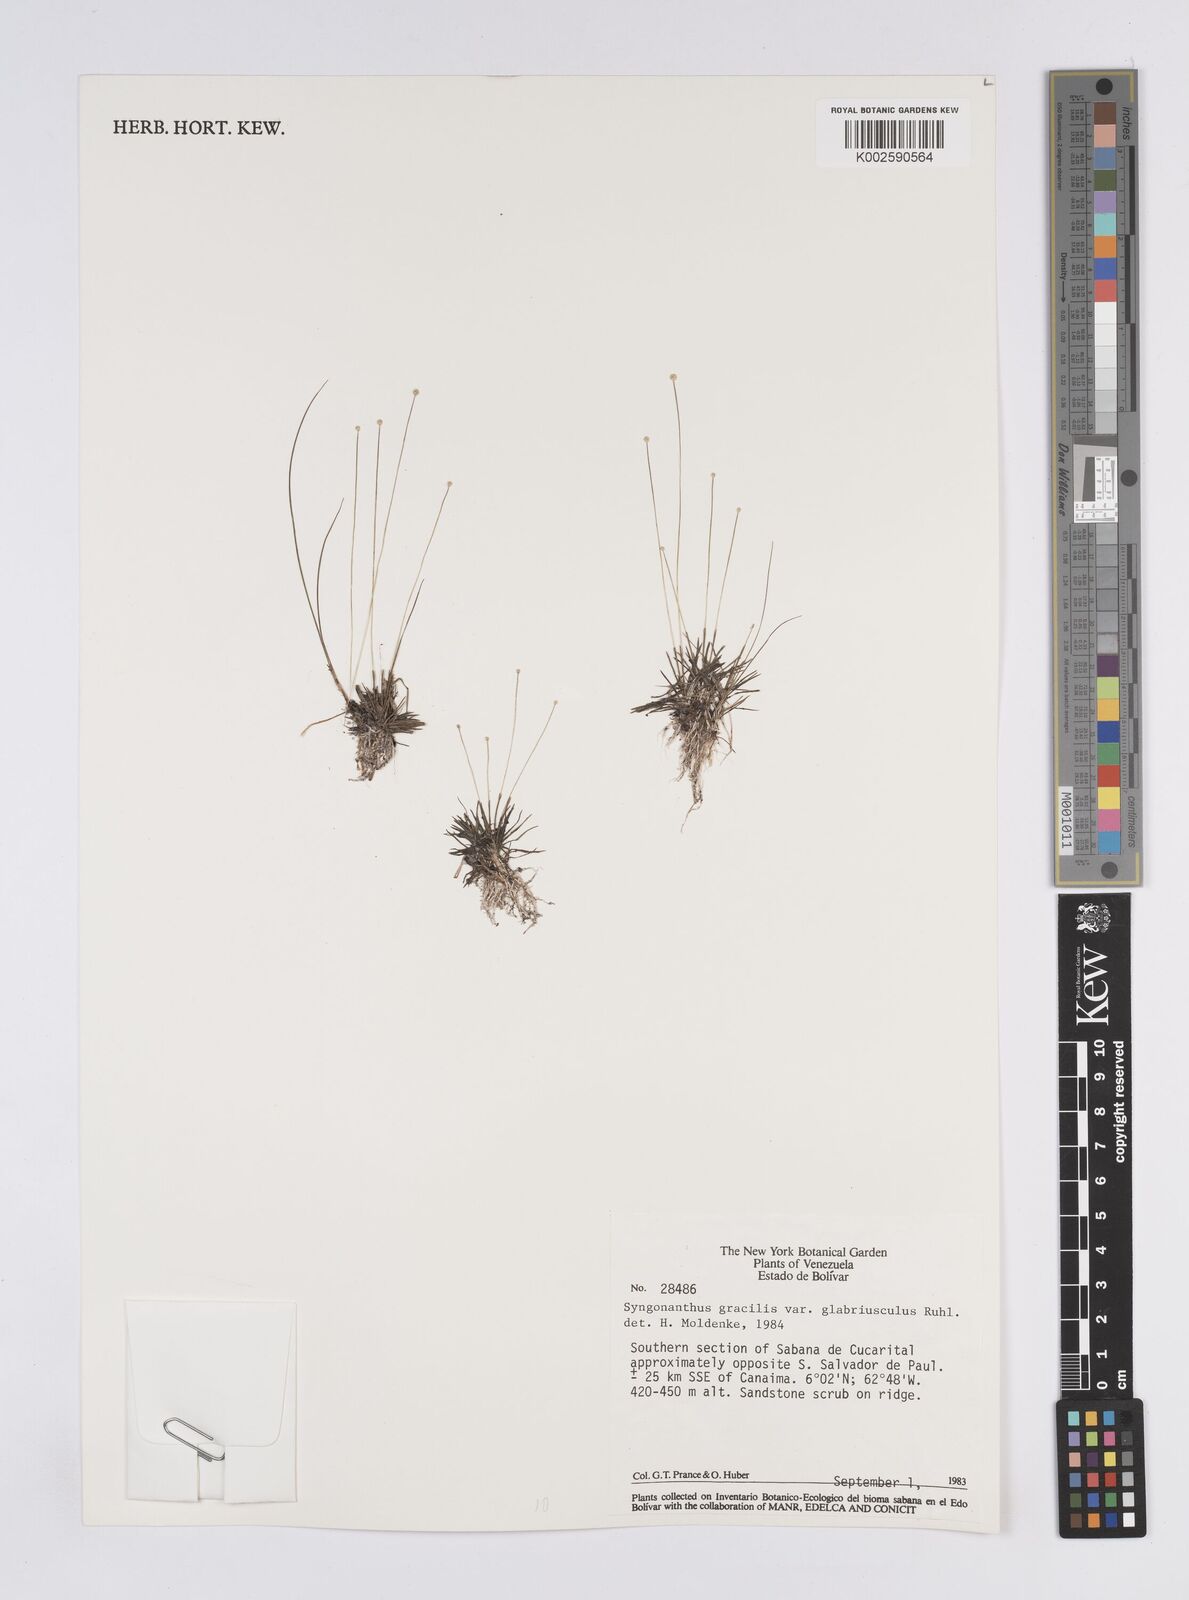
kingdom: Plantae
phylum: Tracheophyta
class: Liliopsida
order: Poales
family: Eriocaulaceae
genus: Syngonanthus
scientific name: Syngonanthus gracilis
